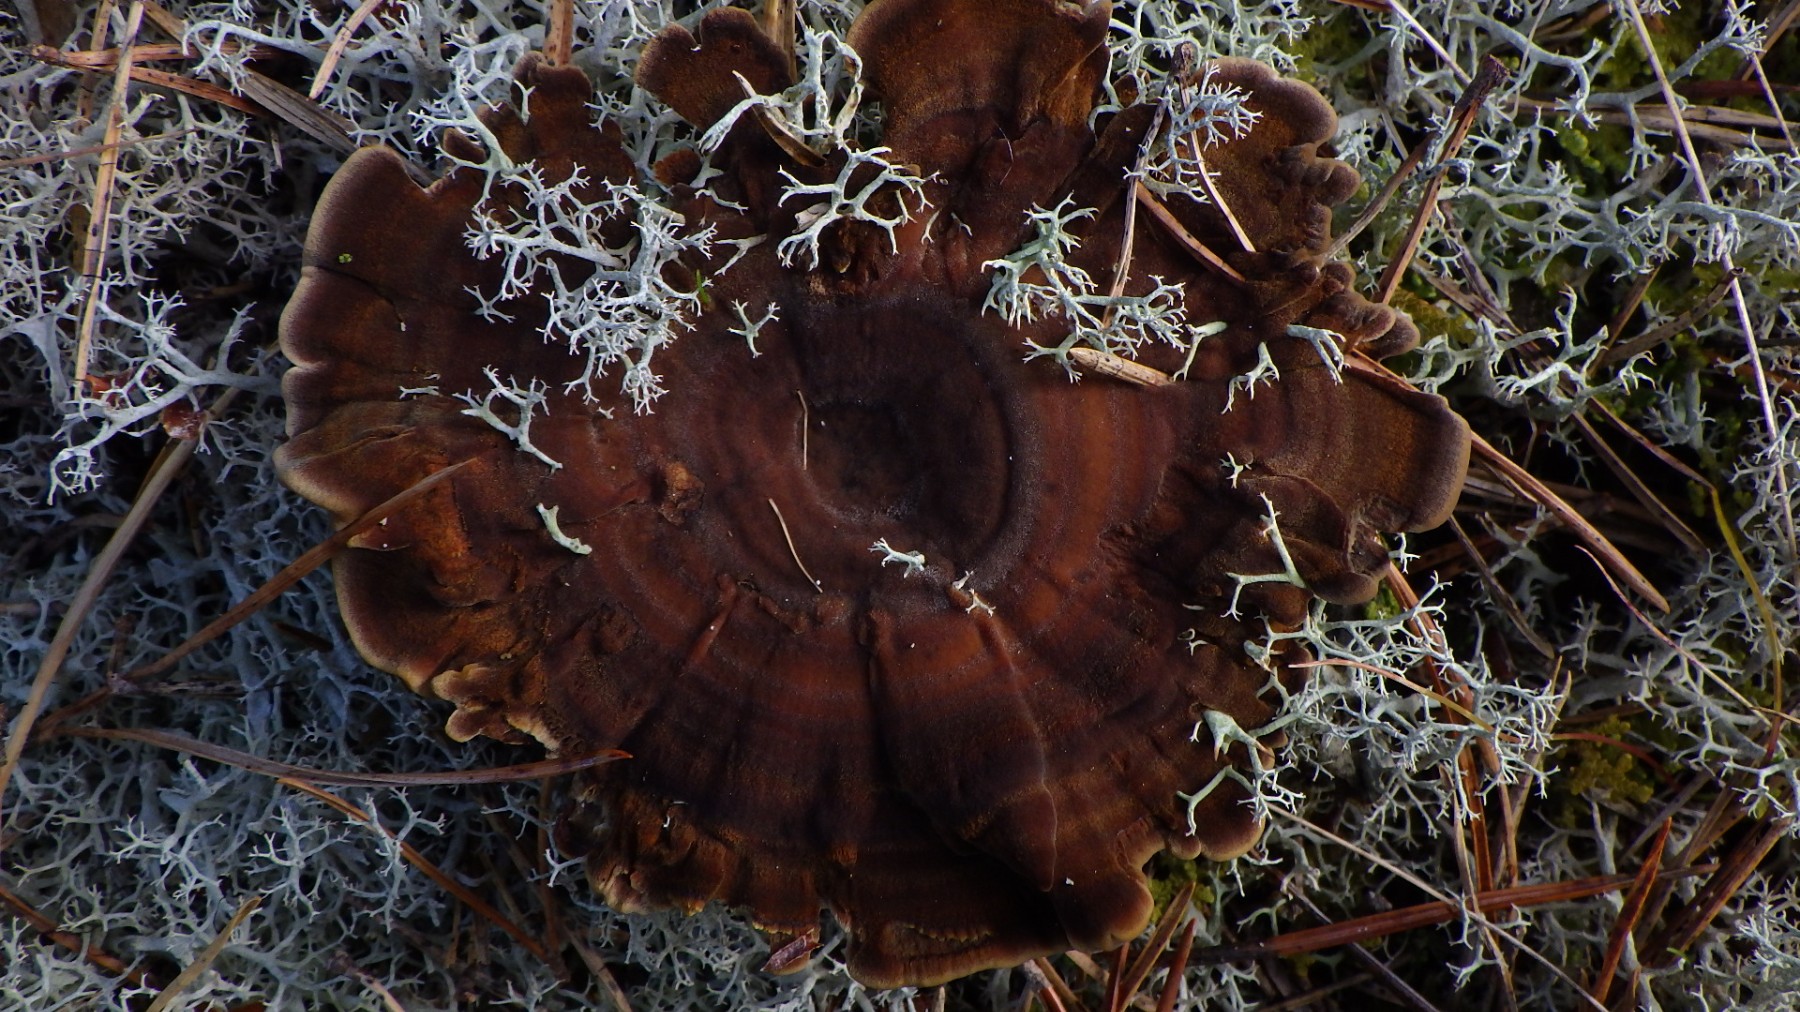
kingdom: Fungi
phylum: Basidiomycota
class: Agaricomycetes
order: Hymenochaetales
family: Hymenochaetaceae
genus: Coltricia
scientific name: Coltricia perennis
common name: almindelig sandporesvamp
